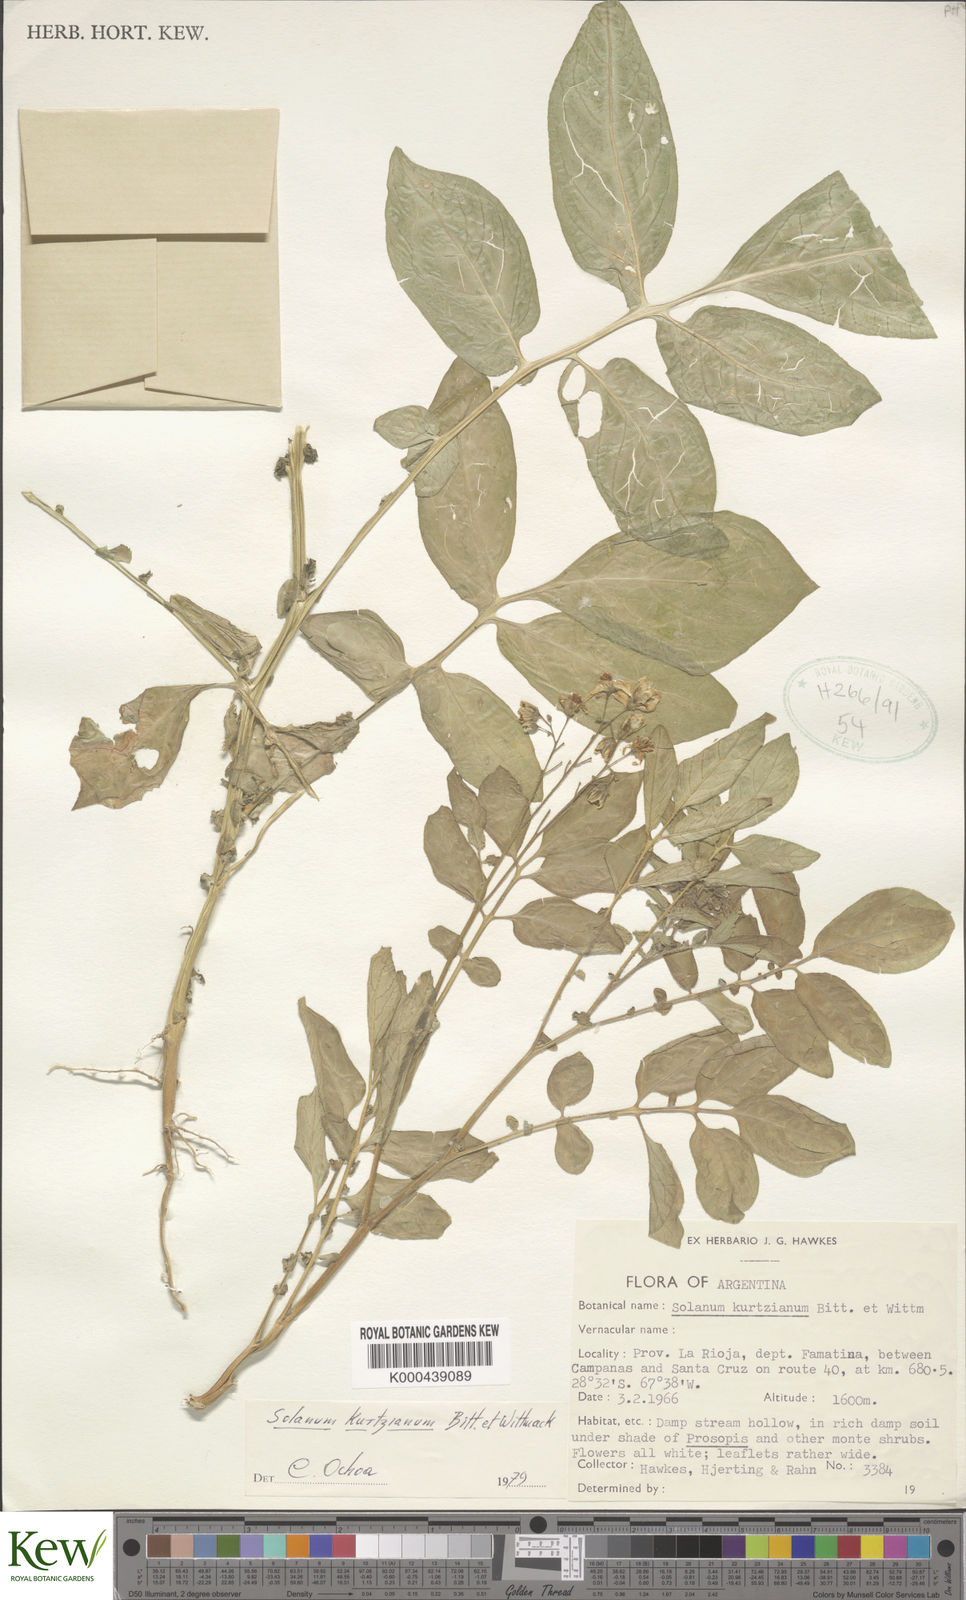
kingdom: Plantae
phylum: Tracheophyta
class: Magnoliopsida
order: Solanales
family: Solanaceae
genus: Solanum
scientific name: Solanum kurtzianum
